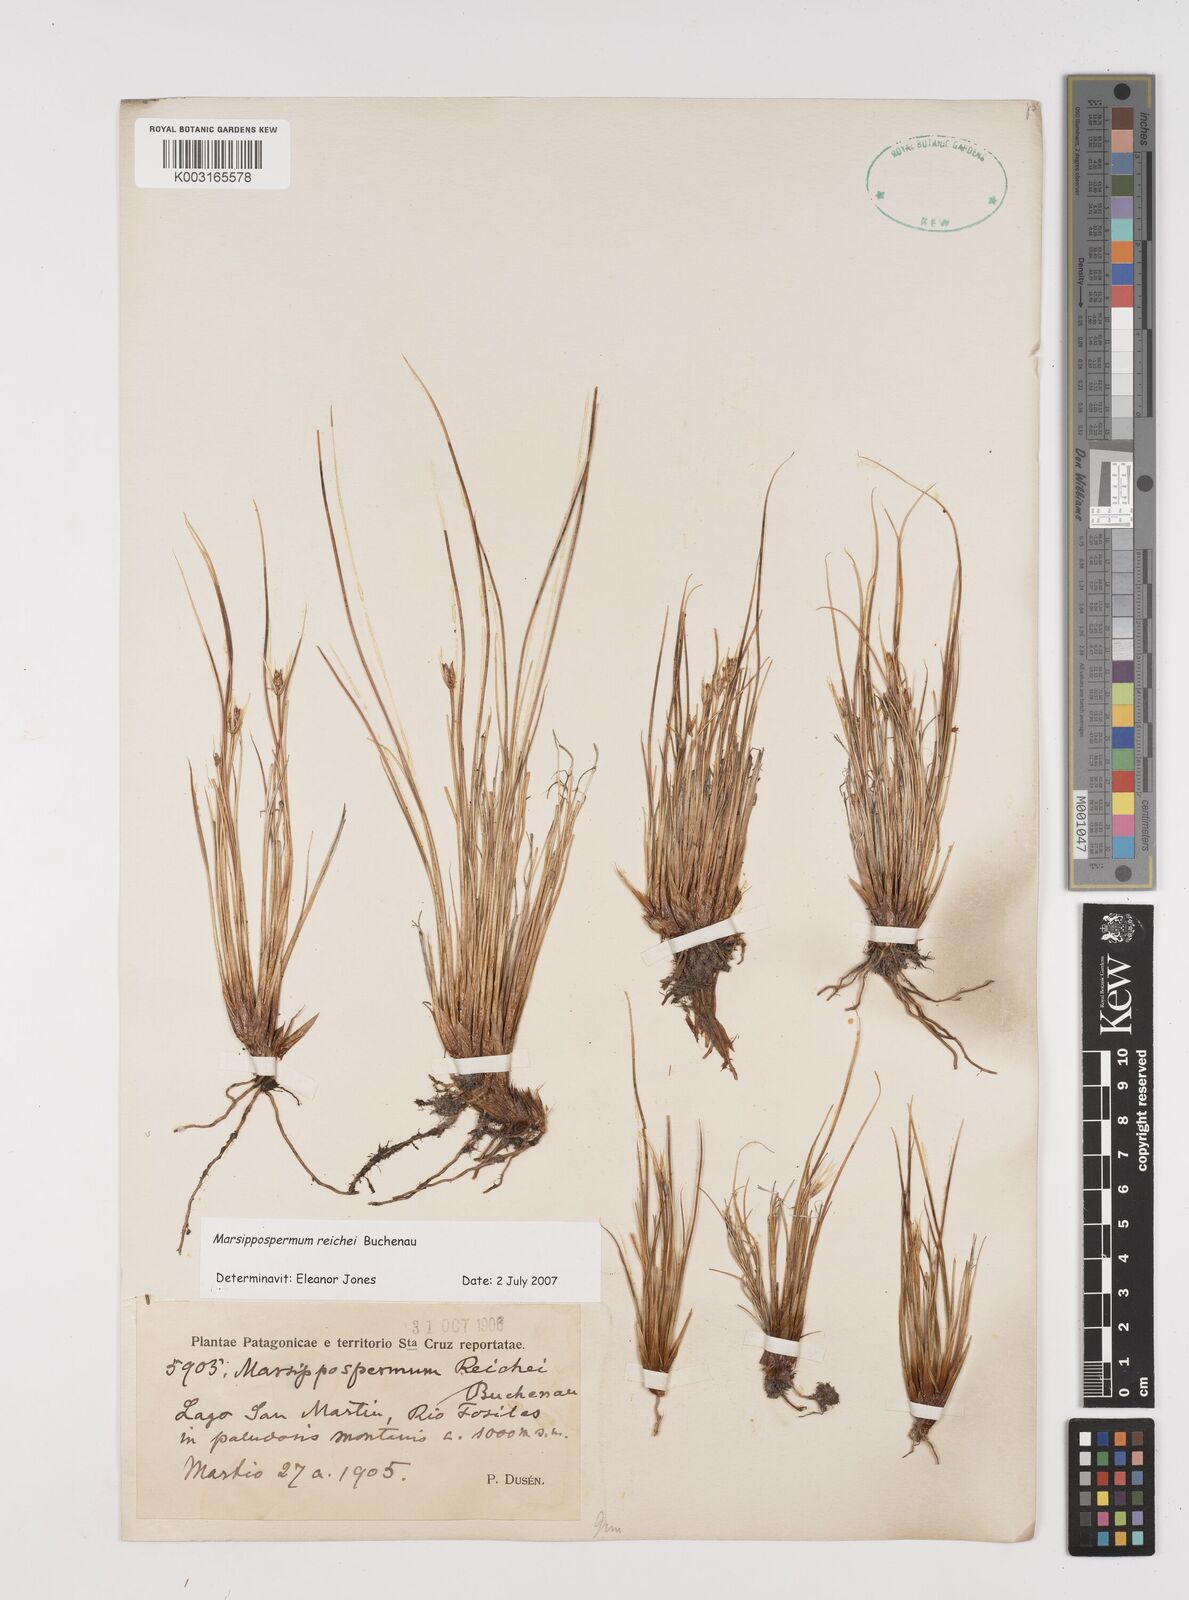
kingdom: Plantae
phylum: Tracheophyta
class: Liliopsida
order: Poales
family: Juncaceae
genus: Marsippospermum
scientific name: Marsippospermum grandiflorum
